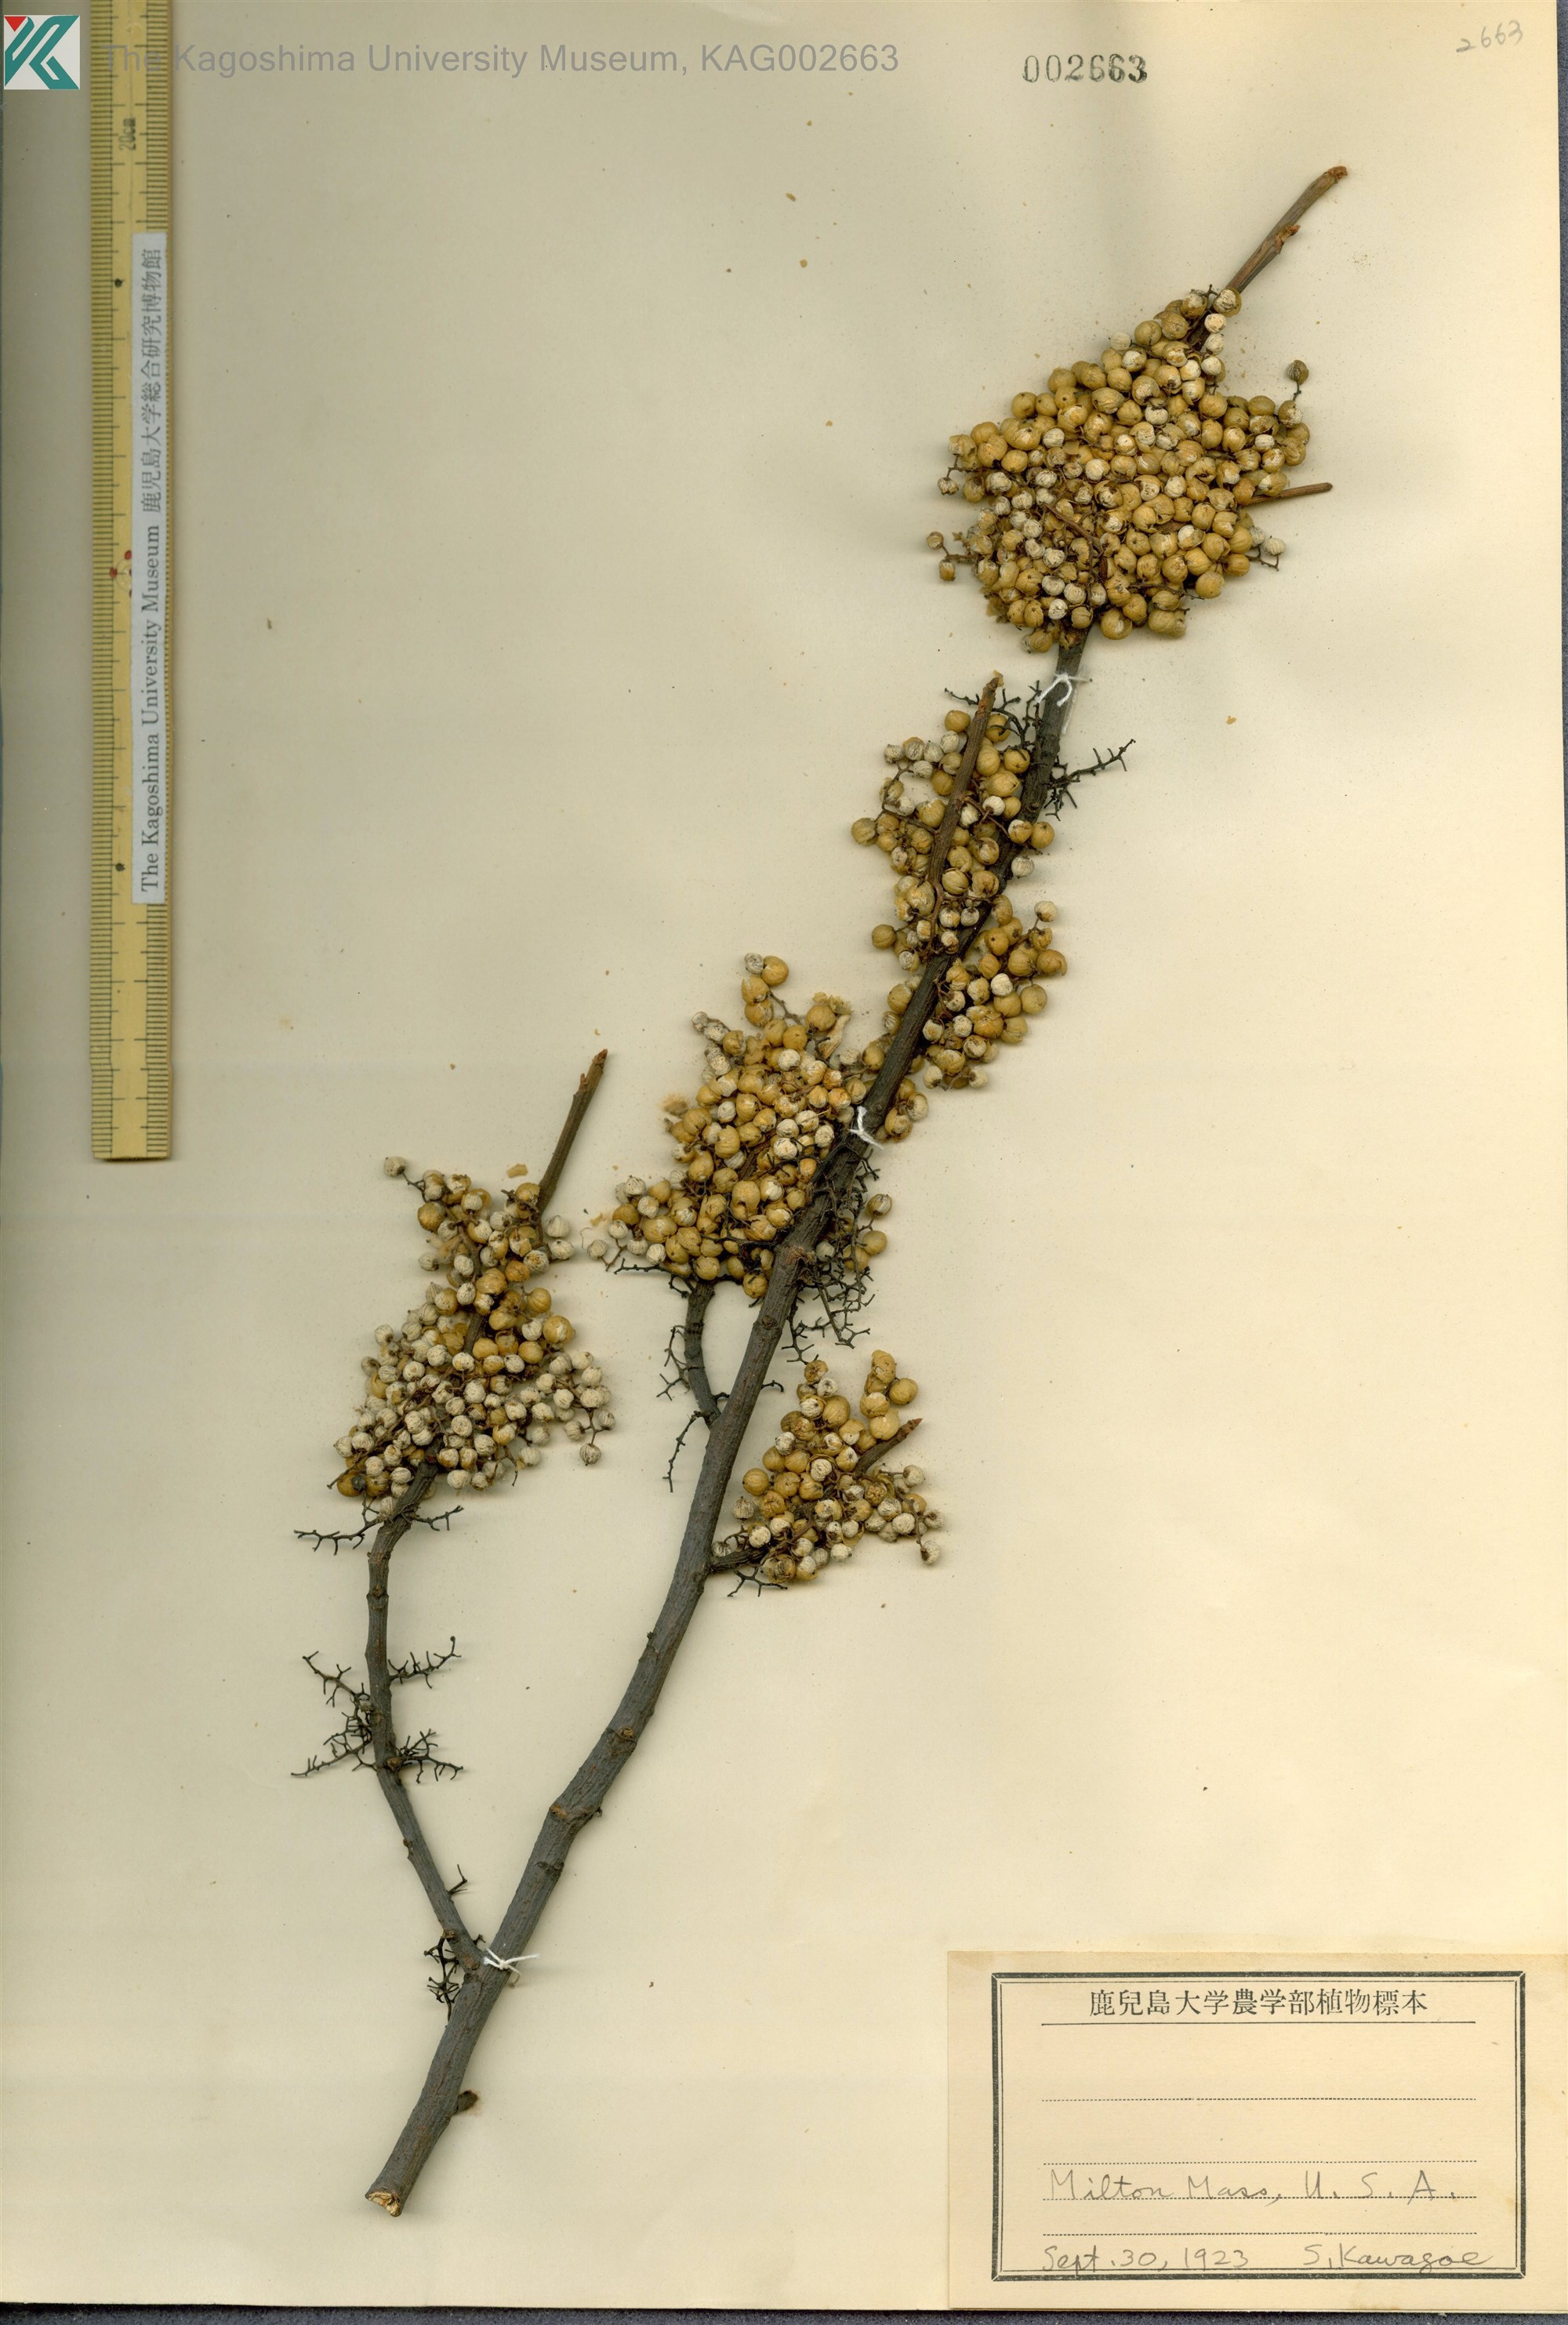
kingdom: Plantae
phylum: Tracheophyta
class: Magnoliopsida
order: Sapindales
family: Anacardiaceae
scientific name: Anacardiaceae
